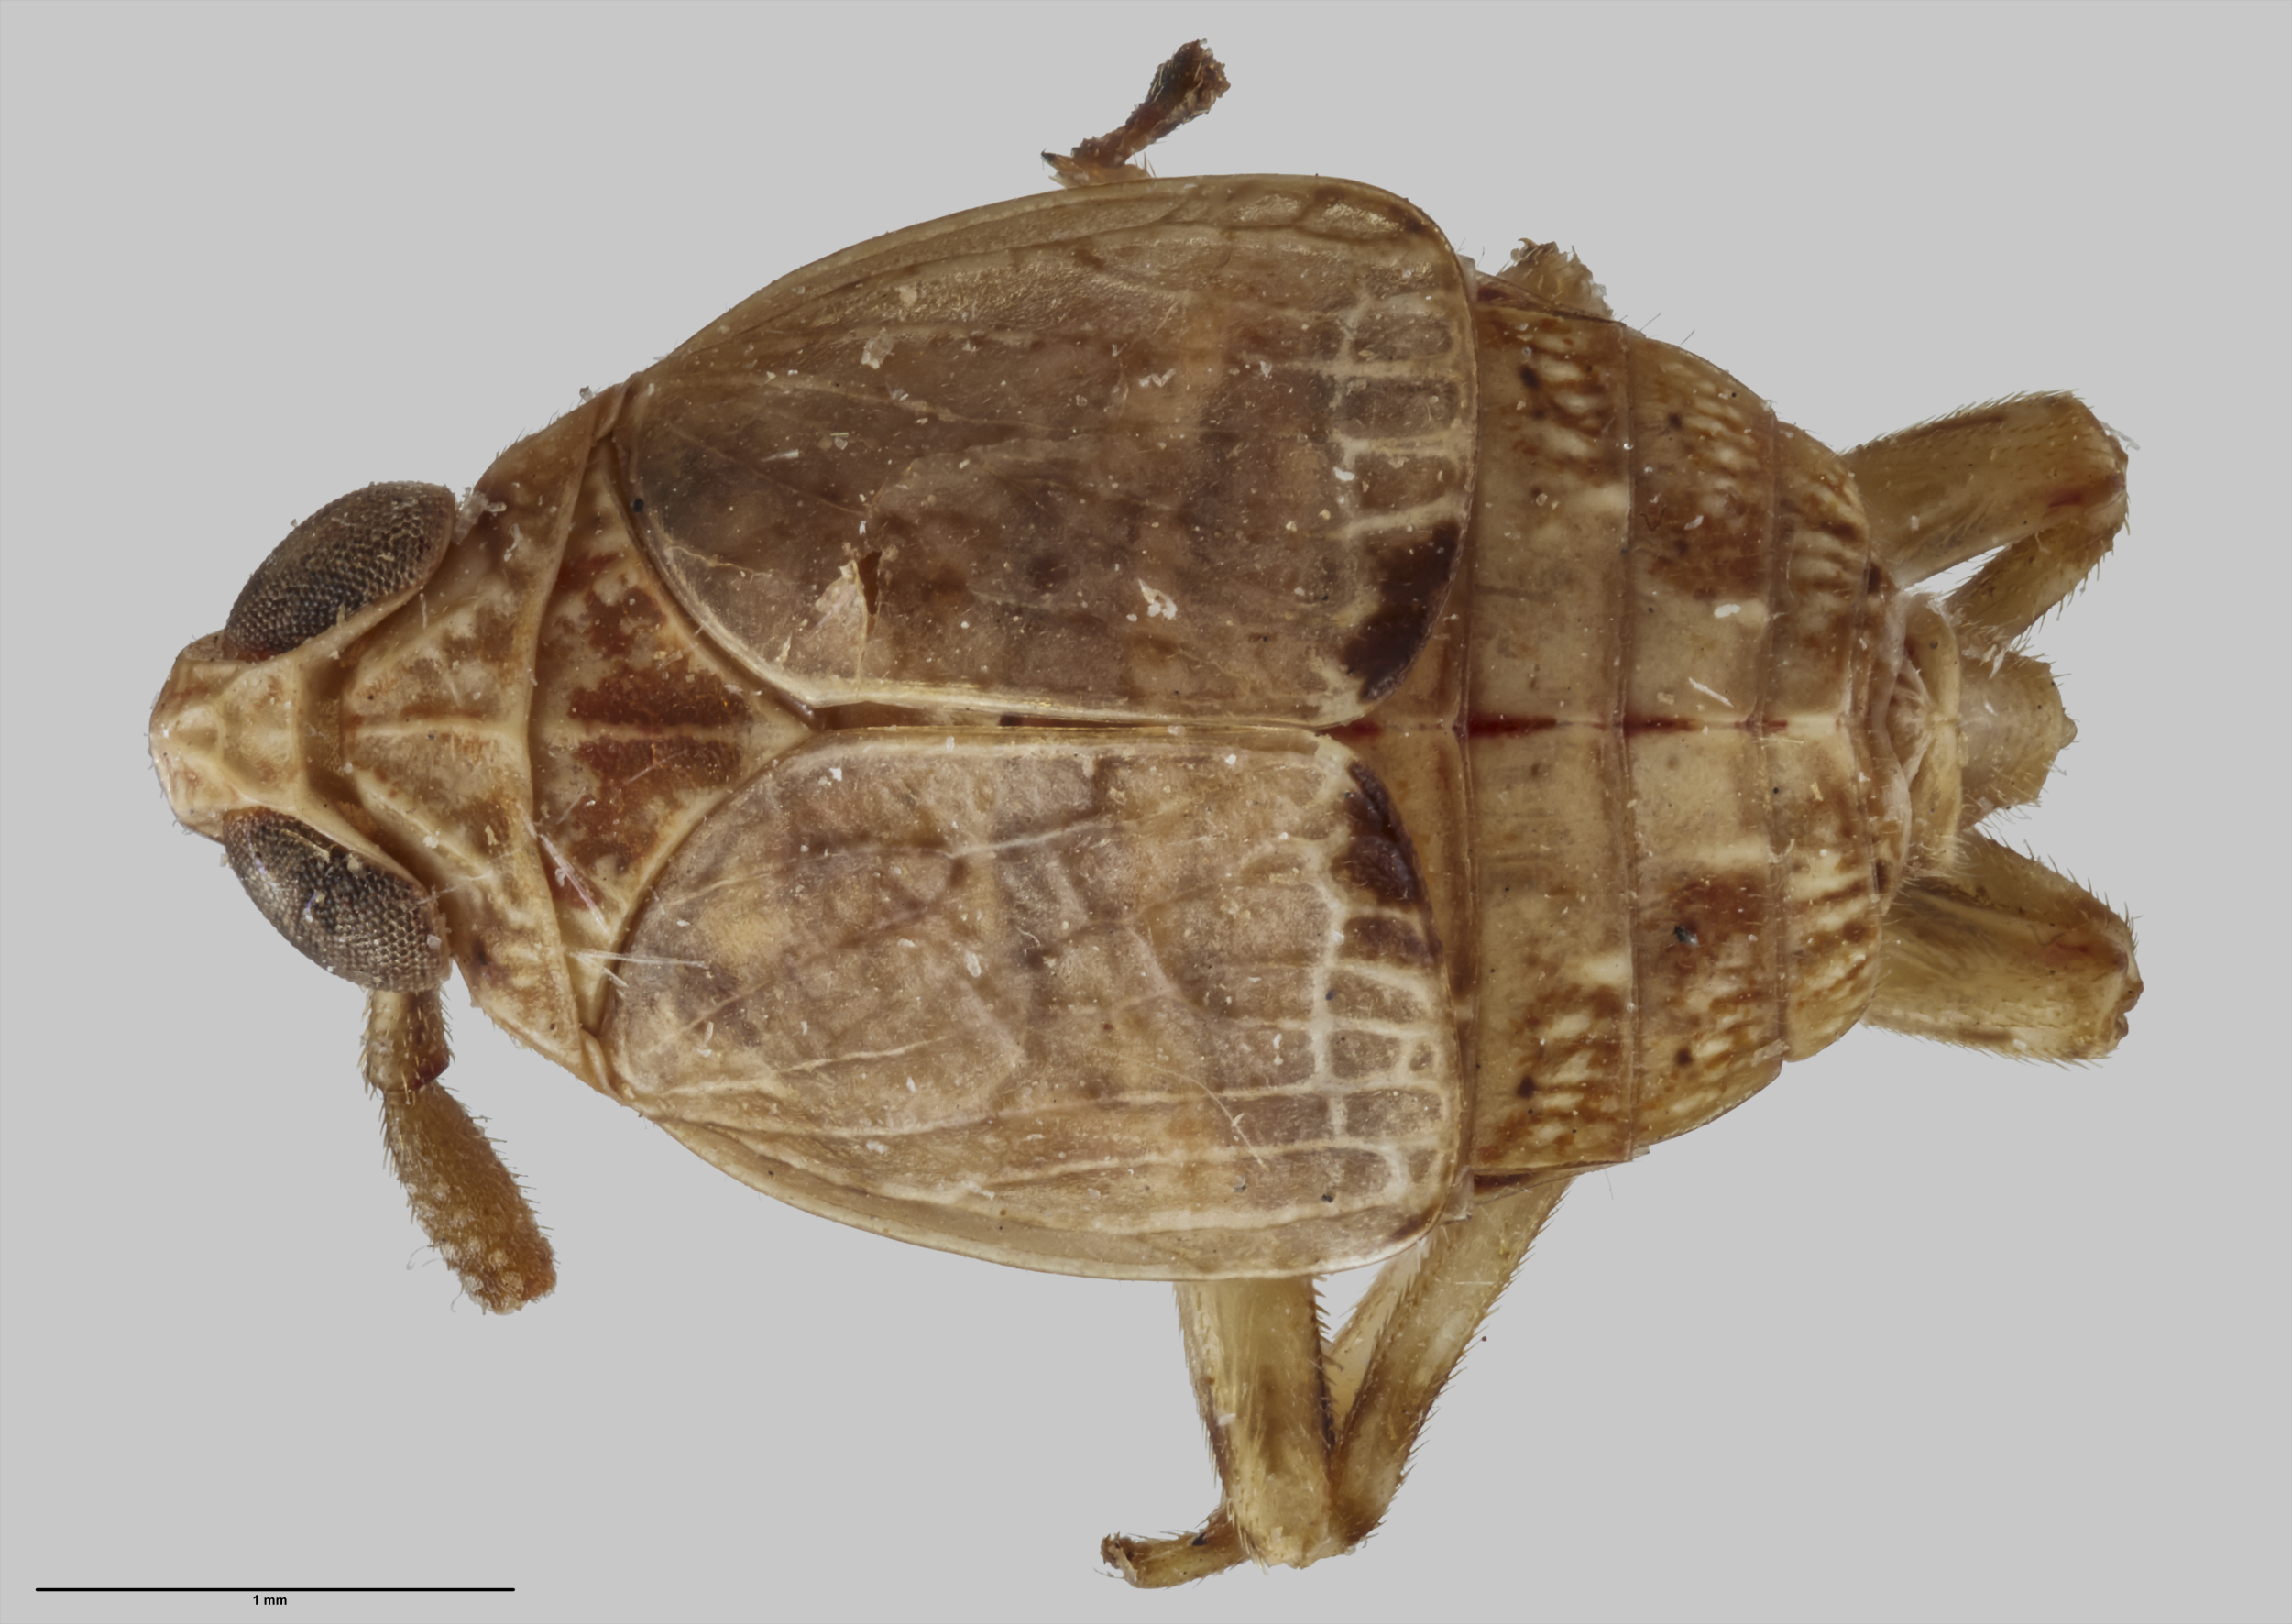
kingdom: Animalia
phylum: Arthropoda
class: Insecta
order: Hemiptera
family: Delphacidae
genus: Ugyops
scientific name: Ugyops pelorus
